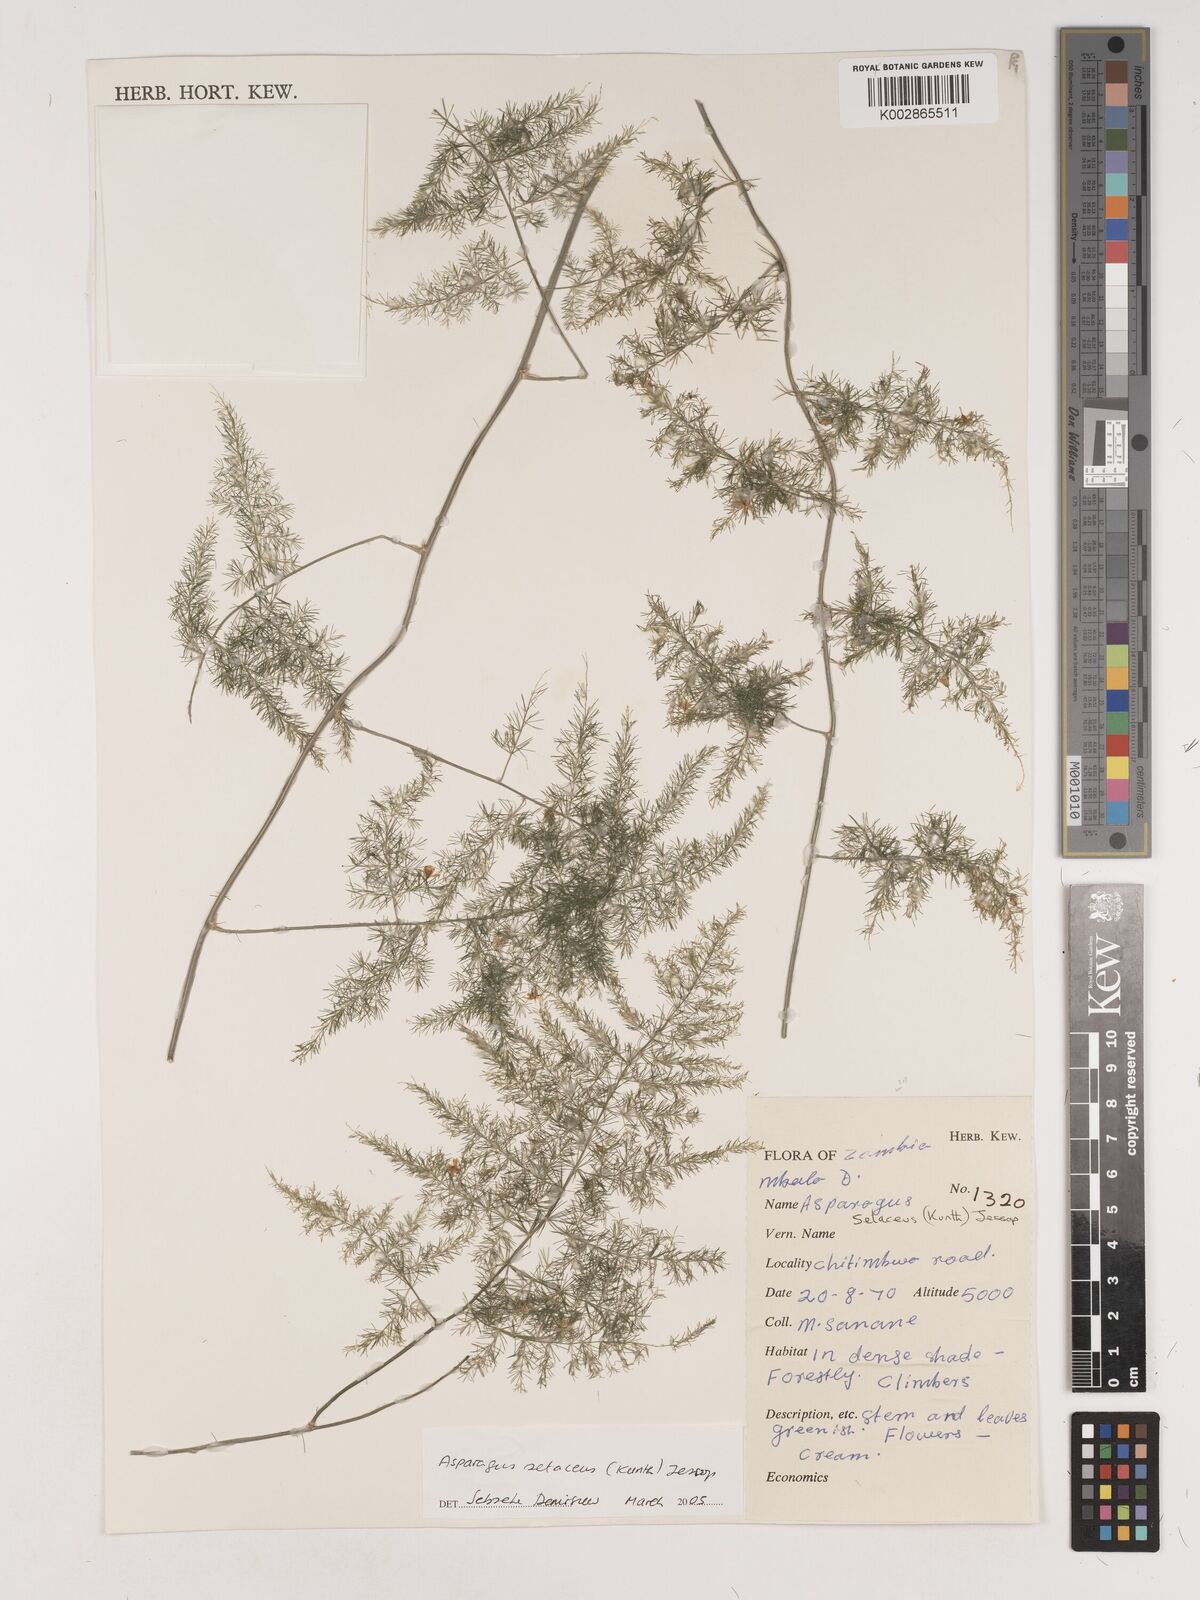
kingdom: Plantae
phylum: Tracheophyta
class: Liliopsida
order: Asparagales
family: Asparagaceae
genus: Asparagus
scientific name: Asparagus setaceus
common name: Common asparagus fern
